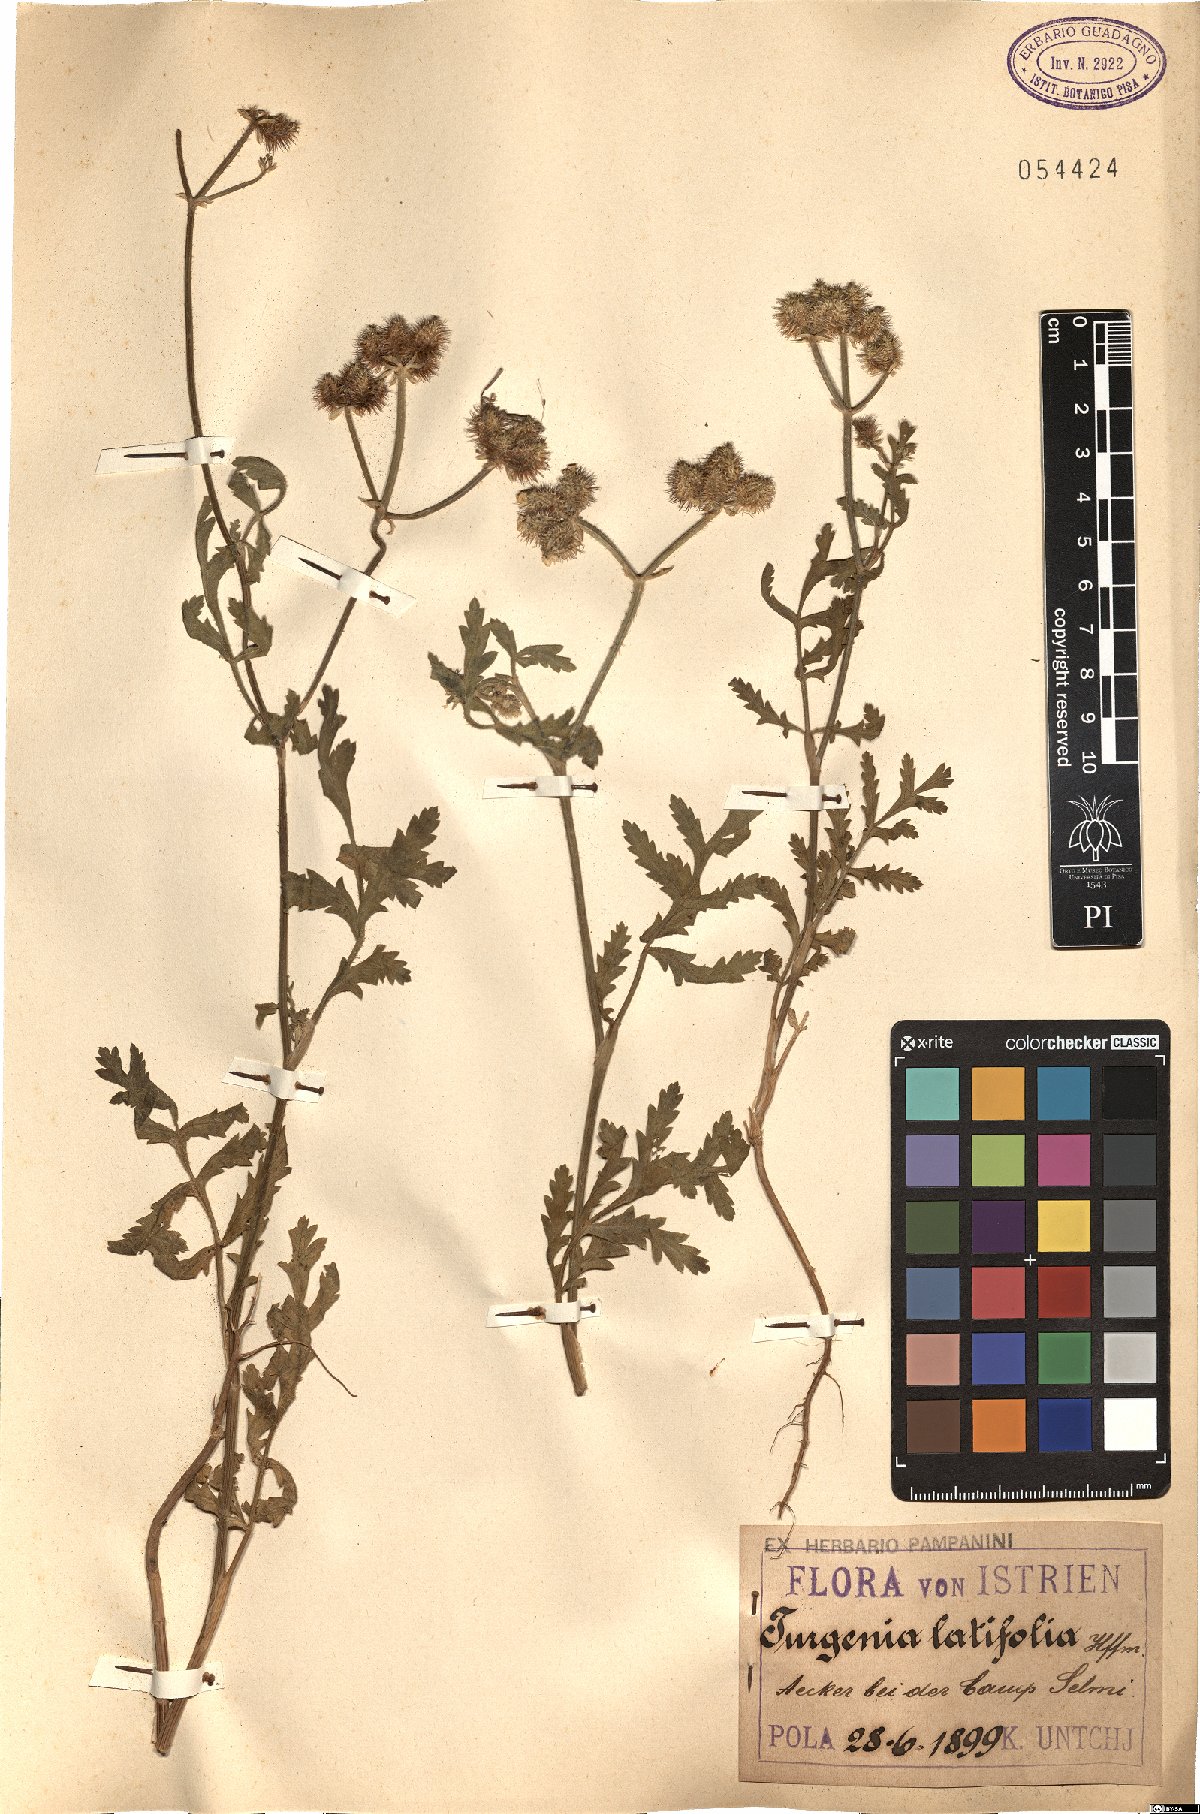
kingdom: Plantae
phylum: Tracheophyta
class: Magnoliopsida
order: Apiales
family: Apiaceae
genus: Turgenia
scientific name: Turgenia latifolia
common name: Greater bur-parsley
